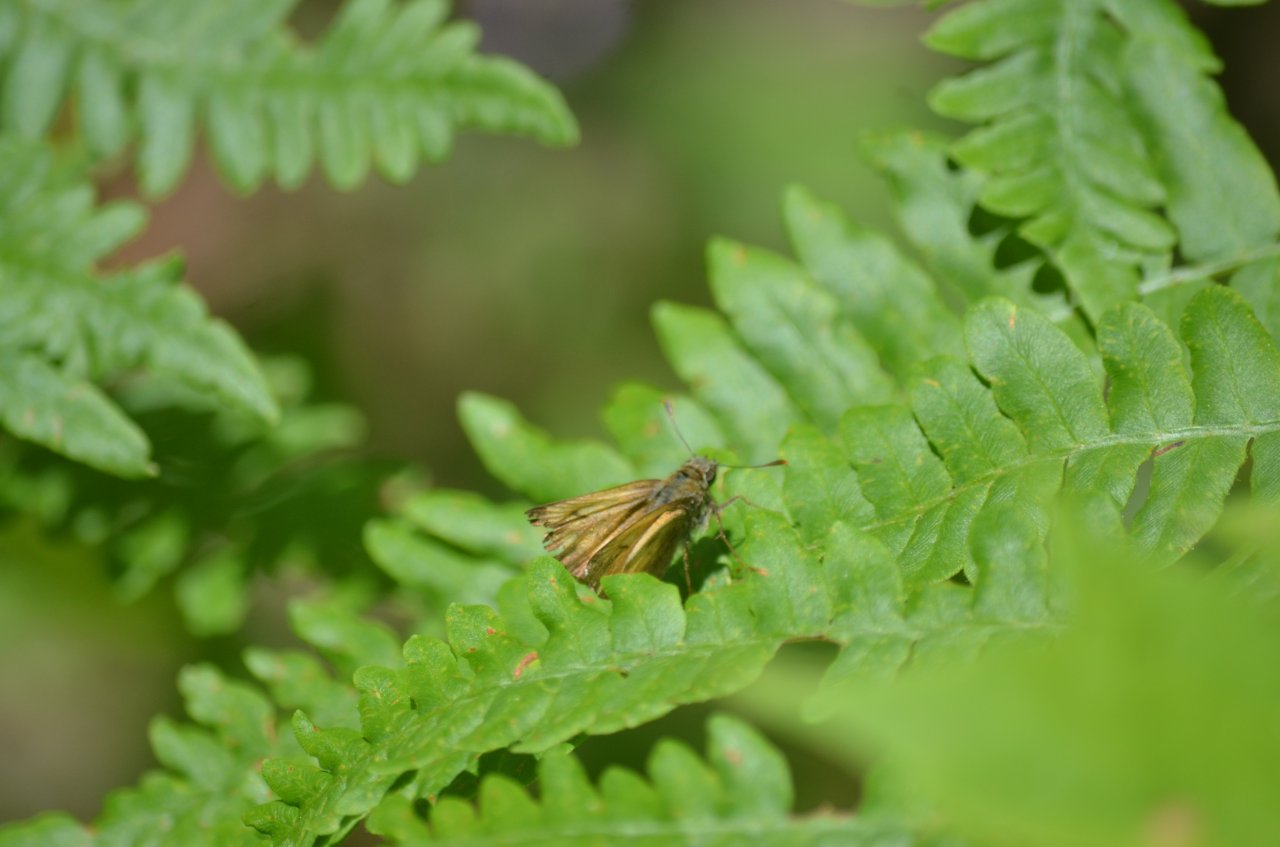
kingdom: Animalia
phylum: Arthropoda
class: Insecta
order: Lepidoptera
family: Hesperiidae
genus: Lon
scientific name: Lon hobomok
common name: Hobomok Skipper
